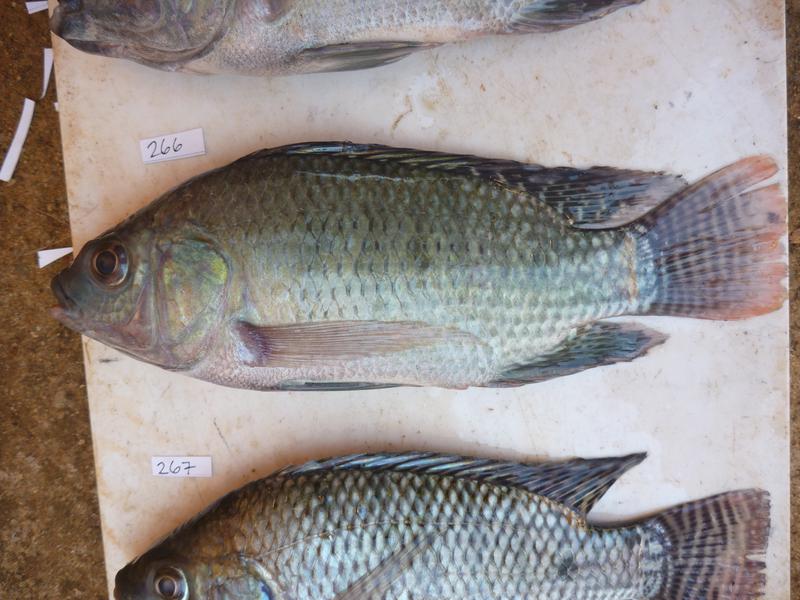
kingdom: Animalia
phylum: Chordata
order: Perciformes
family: Cichlidae
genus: Oreochromis
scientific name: Oreochromis niloticus
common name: Nile tilapia
